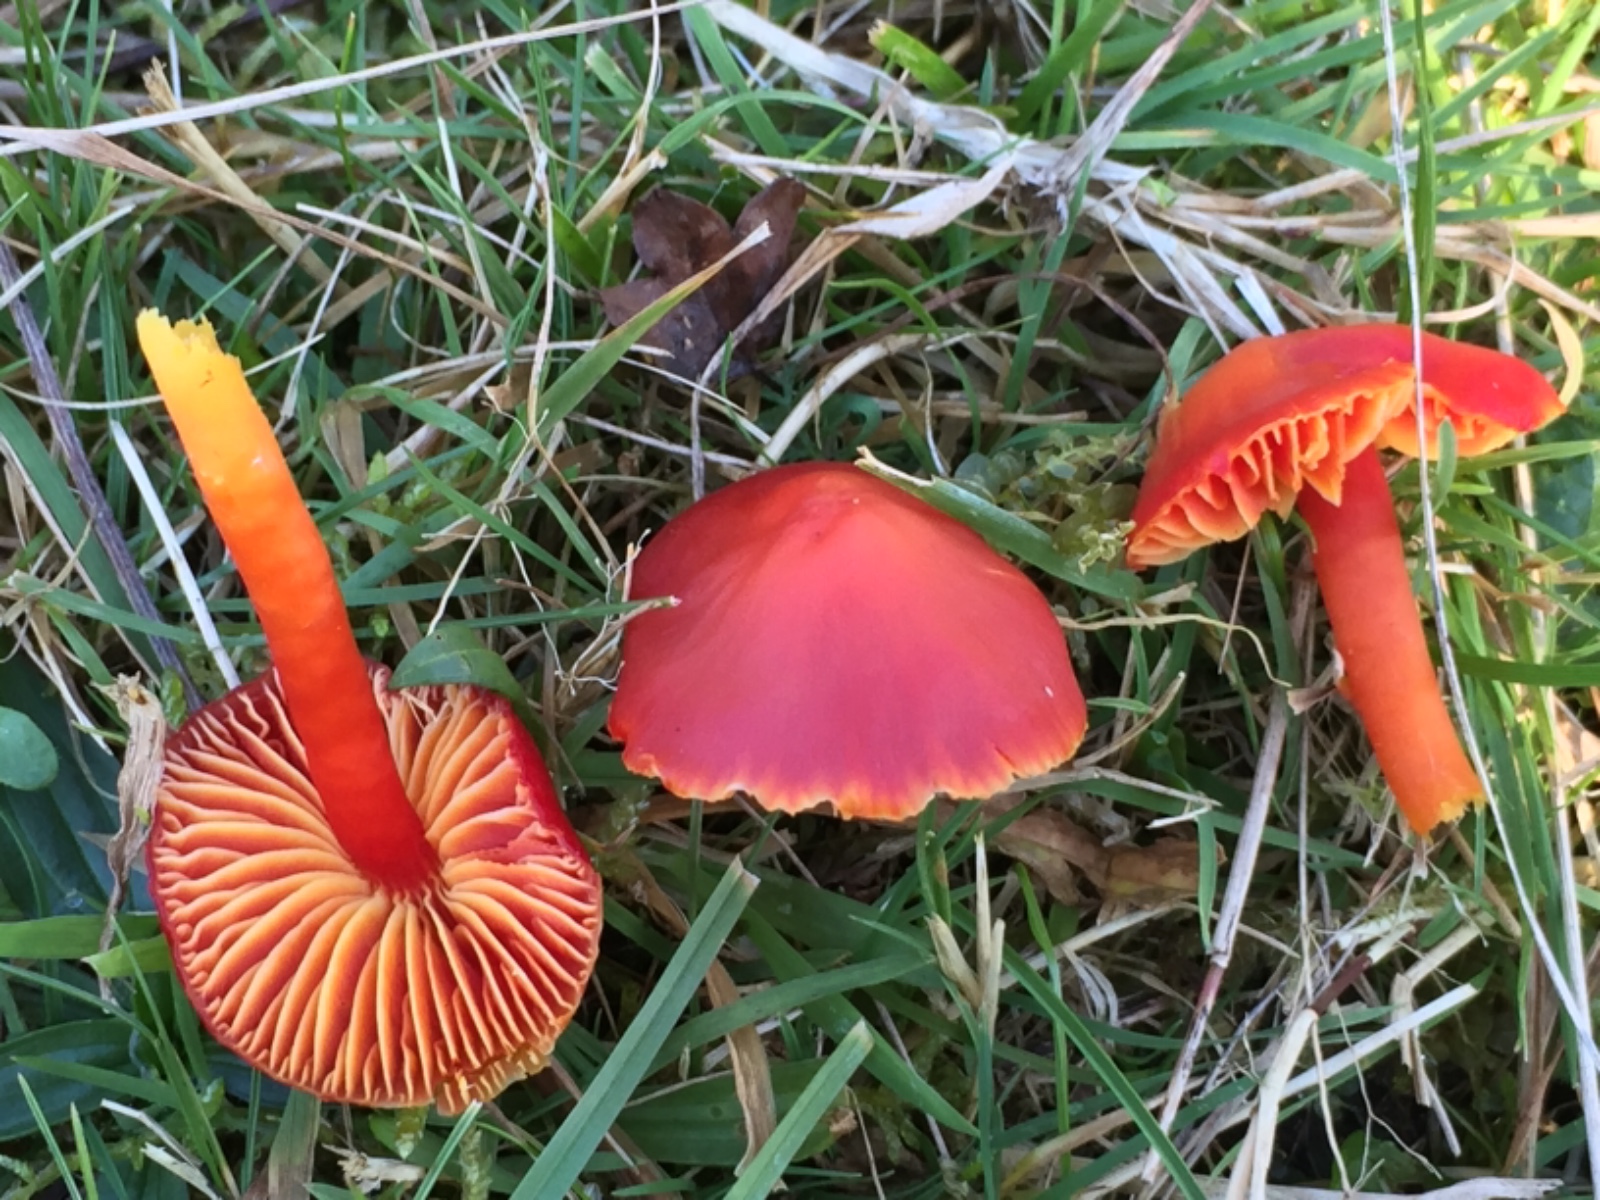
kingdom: Fungi
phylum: Basidiomycota
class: Agaricomycetes
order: Agaricales
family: Hygrophoraceae
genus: Hygrocybe
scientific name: Hygrocybe coccinea
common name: cinnober-vokshat
